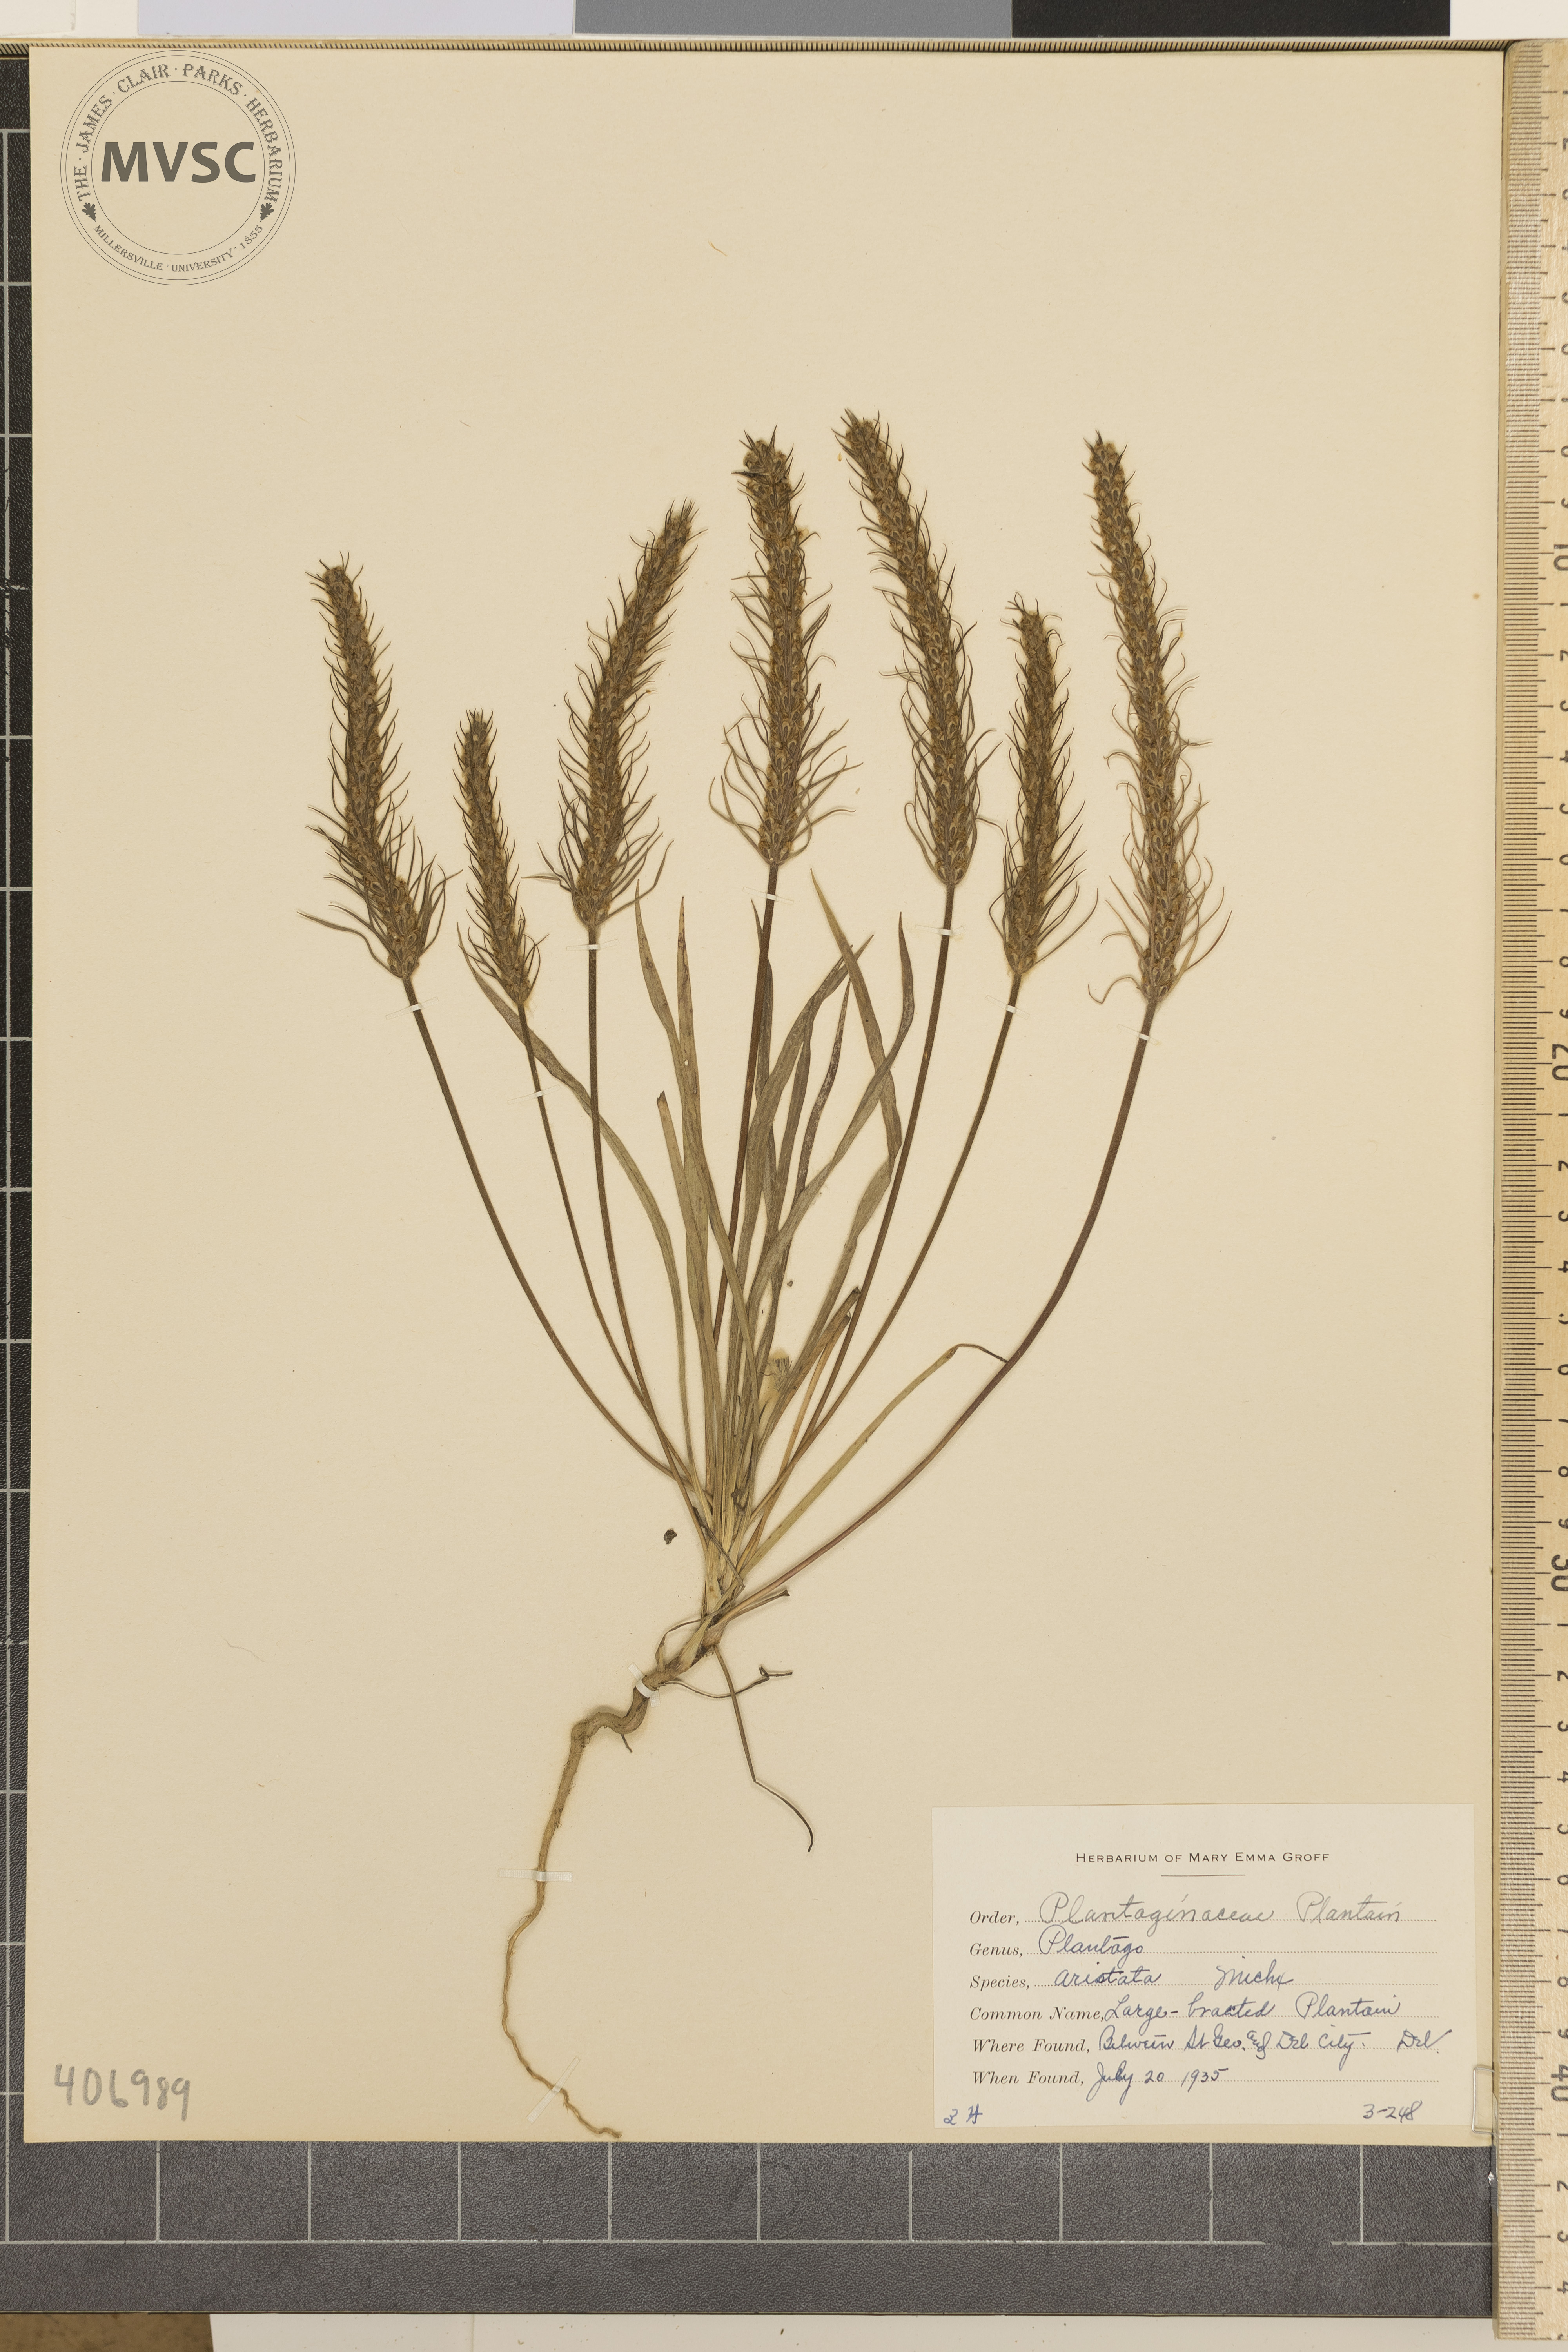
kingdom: Plantae
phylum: Tracheophyta
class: Magnoliopsida
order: Lamiales
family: Plantaginaceae
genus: Plantago
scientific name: Plantago aristata
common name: Large-bracted Plantain
